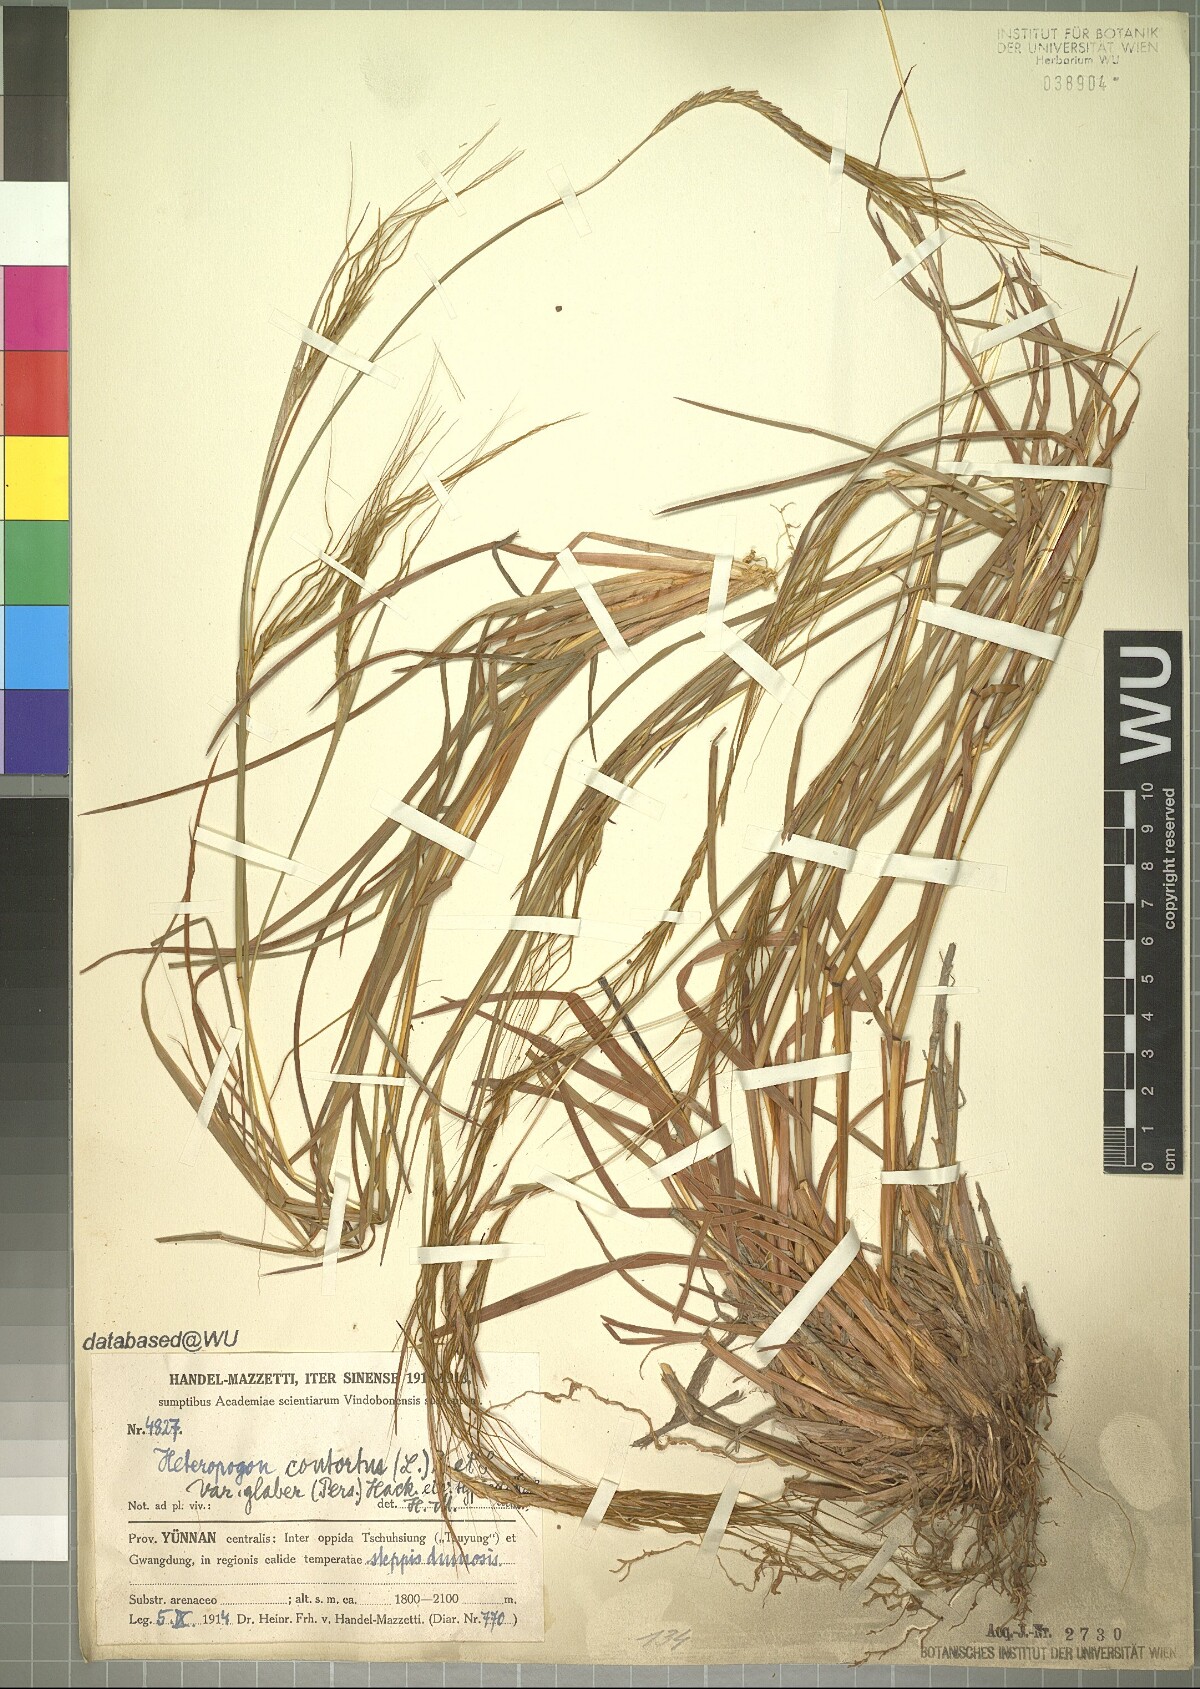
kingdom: Plantae
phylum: Tracheophyta
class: Liliopsida
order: Poales
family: Poaceae
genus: Heteropogon
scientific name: Heteropogon contortus
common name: Tanglehead
